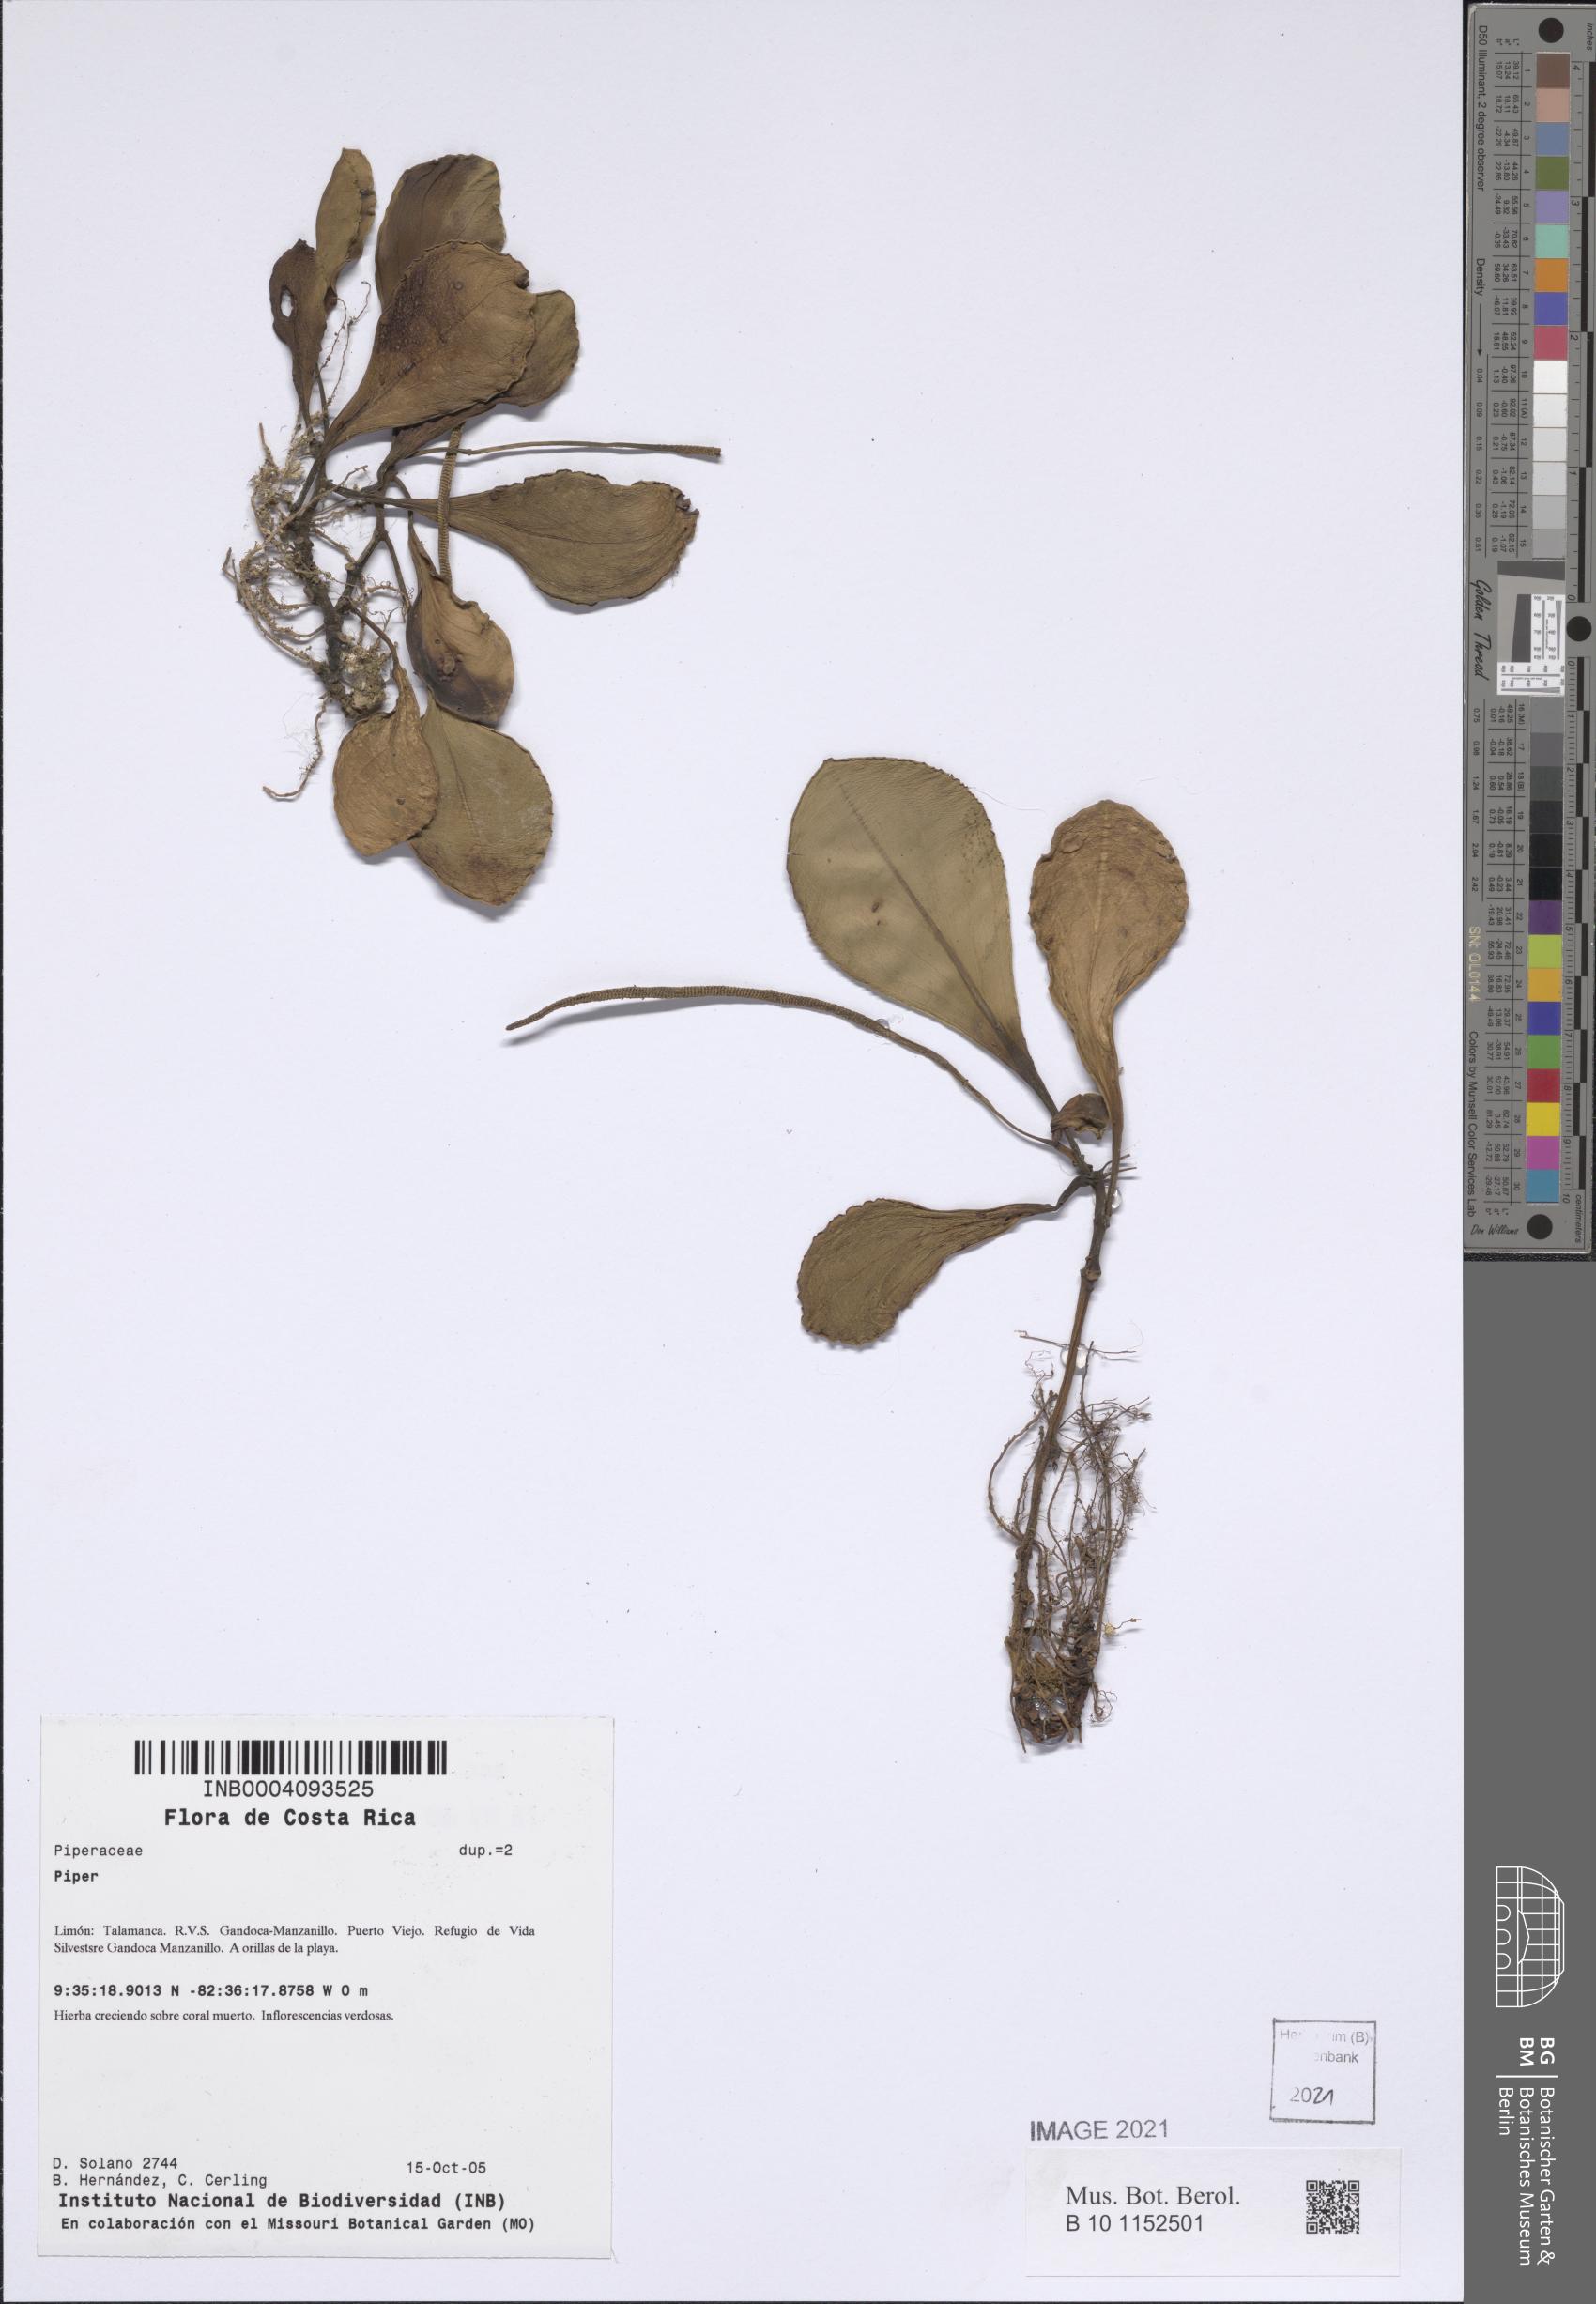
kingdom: Plantae
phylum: Tracheophyta
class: Magnoliopsida
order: Piperales
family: Piperaceae
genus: Piper
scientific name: Piper
